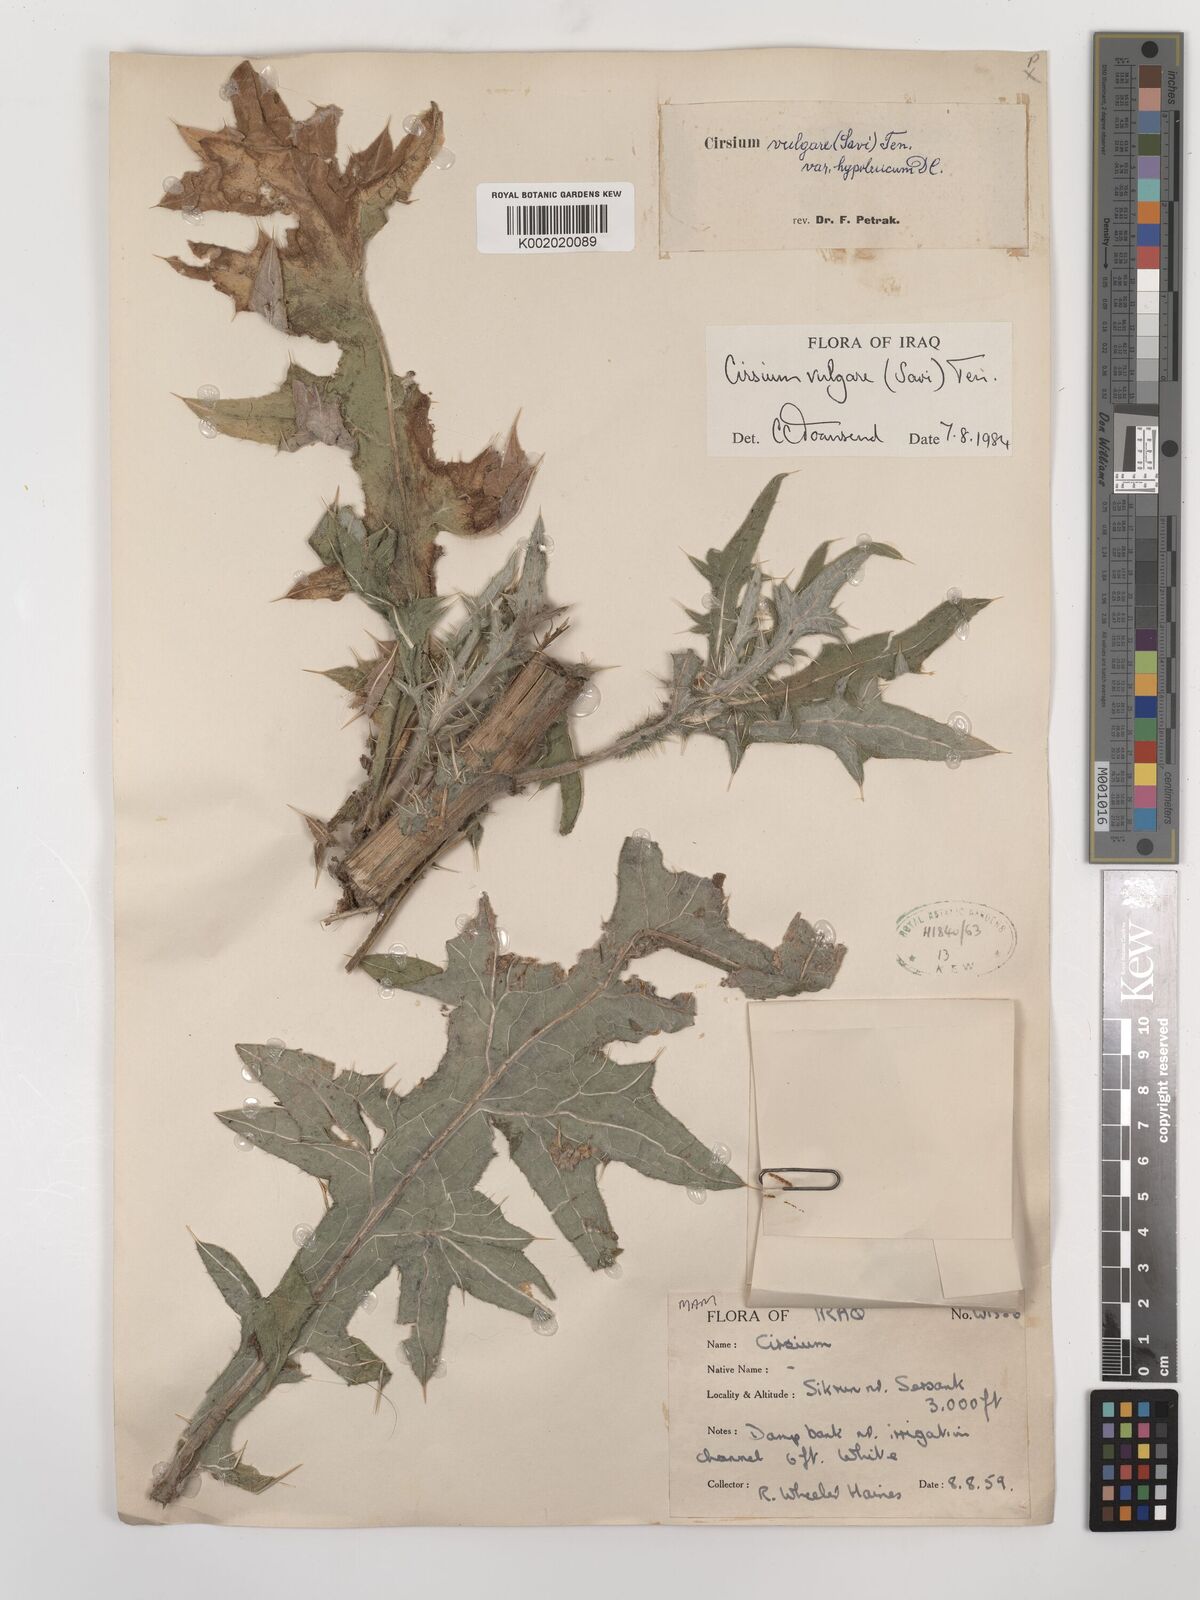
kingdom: Plantae
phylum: Tracheophyta
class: Magnoliopsida
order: Asterales
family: Asteraceae
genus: Cirsium
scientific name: Cirsium vulgare
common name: Bull thistle
